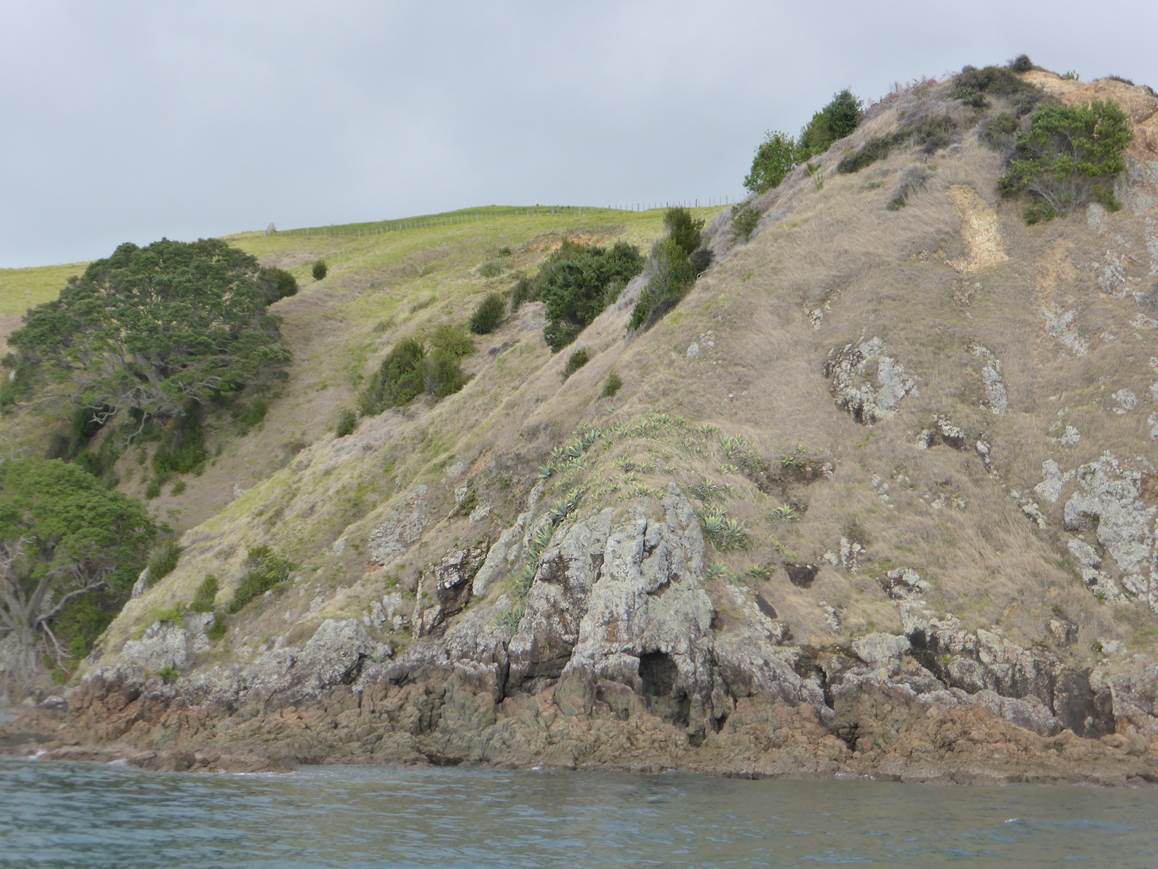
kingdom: Plantae
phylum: Tracheophyta
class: Liliopsida
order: Asparagales
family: Asparagaceae
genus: Agave
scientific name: Agave americana
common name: Centuryplant
